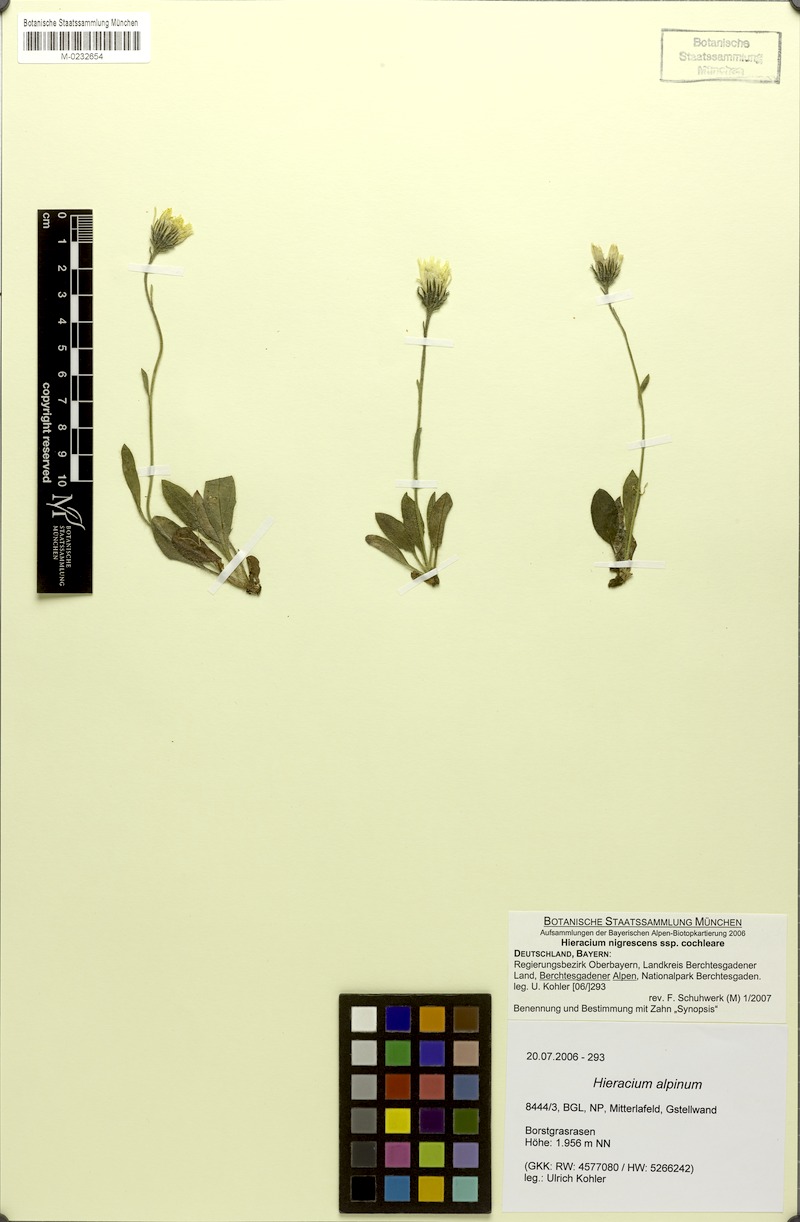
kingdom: Plantae
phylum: Tracheophyta
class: Magnoliopsida
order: Asterales
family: Asteraceae
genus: Hieracium
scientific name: Hieracium nigrescens
